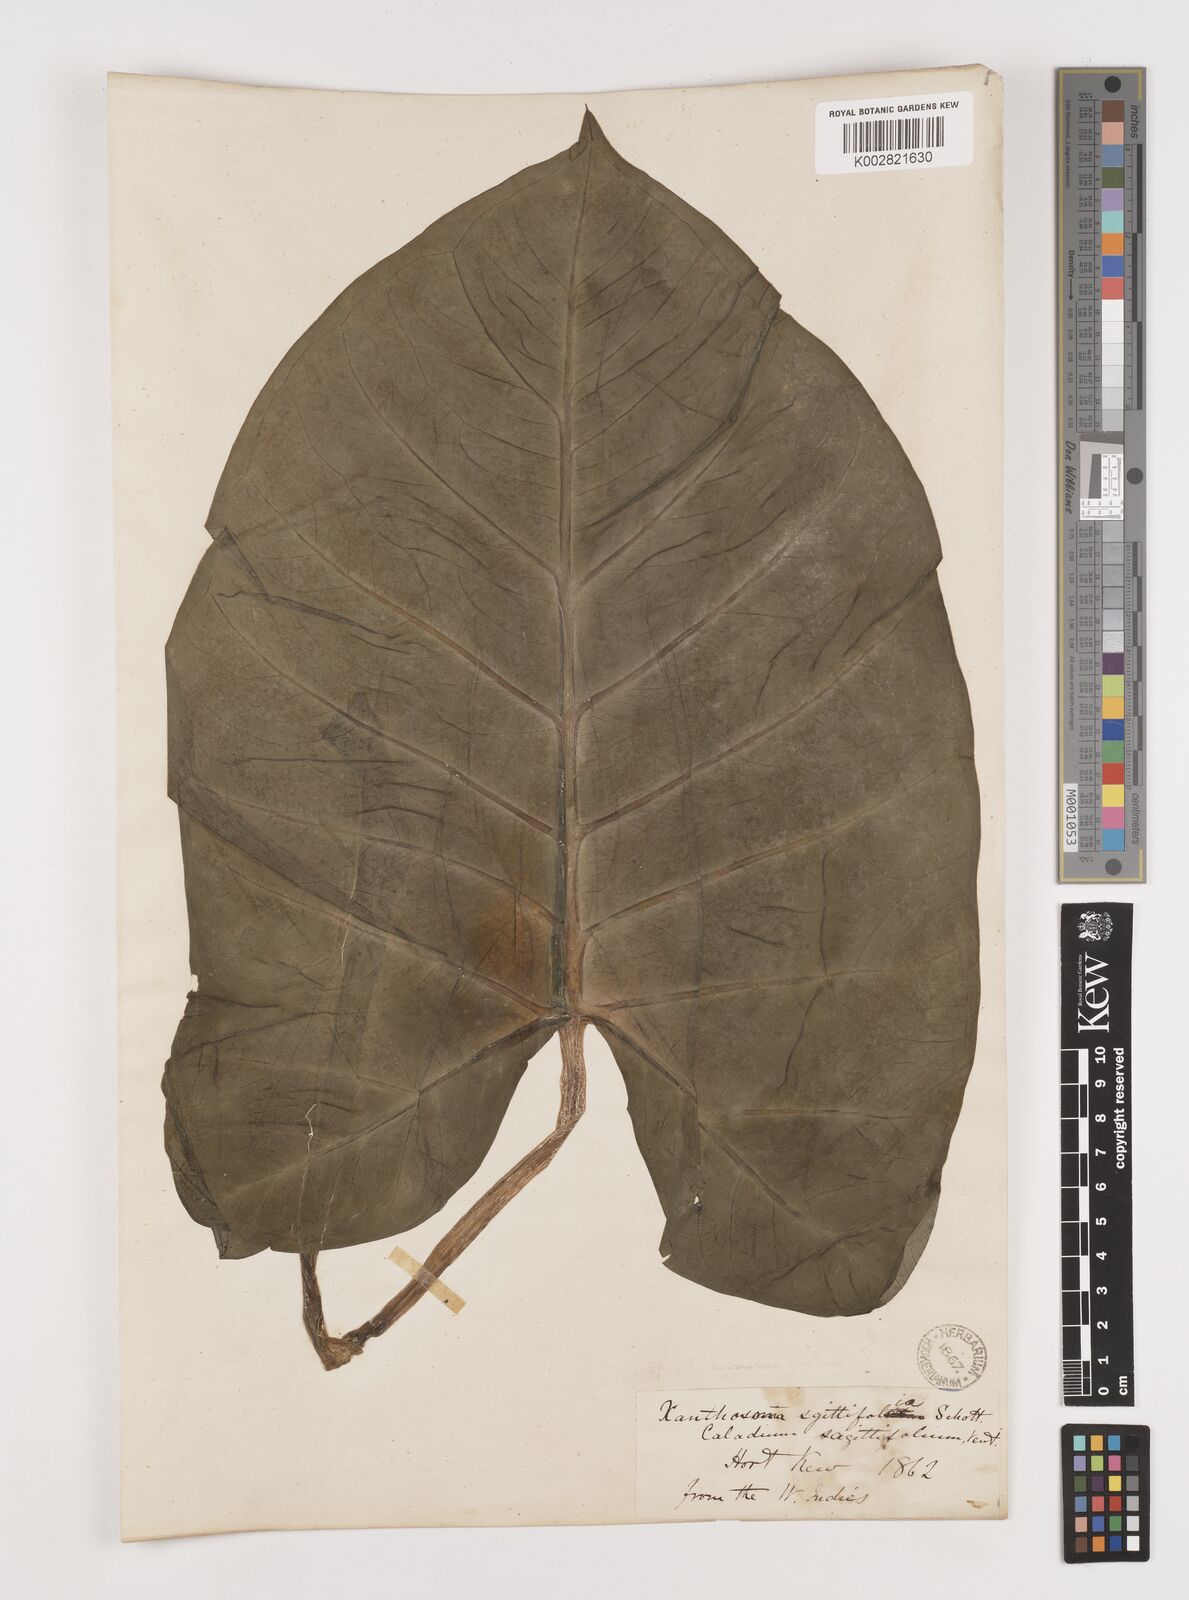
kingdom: Plantae
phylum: Tracheophyta
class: Liliopsida
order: Alismatales
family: Araceae
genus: Xanthosoma
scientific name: Xanthosoma sagittifolium
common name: Arrowleaf elephant's ear
